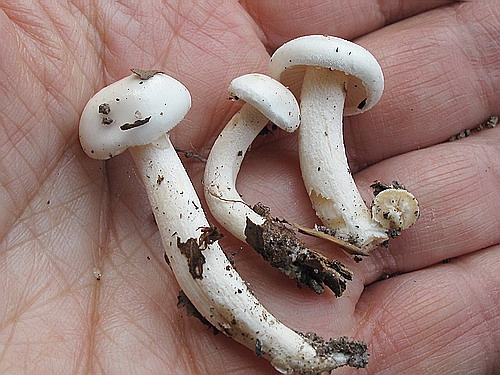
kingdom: Fungi
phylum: Basidiomycota
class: Agaricomycetes
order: Agaricales
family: Hygrophoraceae
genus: Hygrophorus
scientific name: Hygrophorus eburneus
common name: elfenbens-sneglehat
